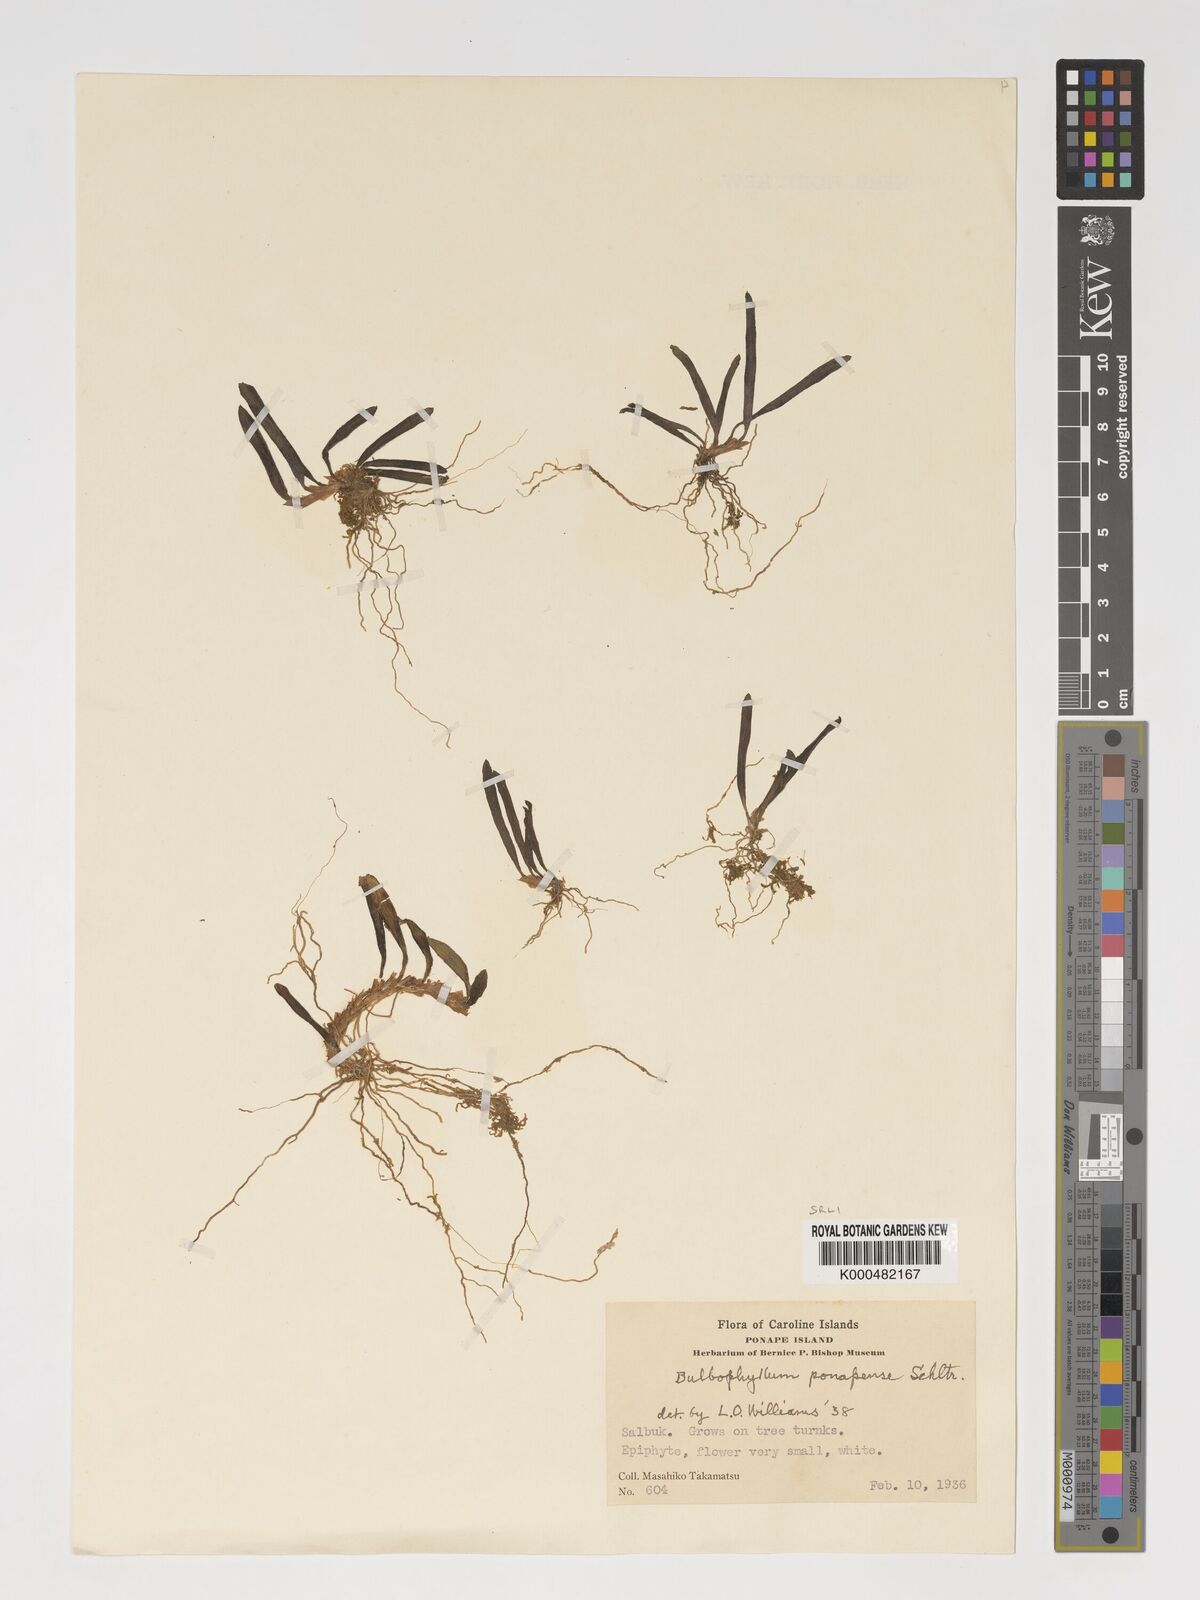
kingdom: Plantae
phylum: Tracheophyta
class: Liliopsida
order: Asparagales
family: Orchidaceae
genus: Bulbophyllum
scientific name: Bulbophyllum betchei
